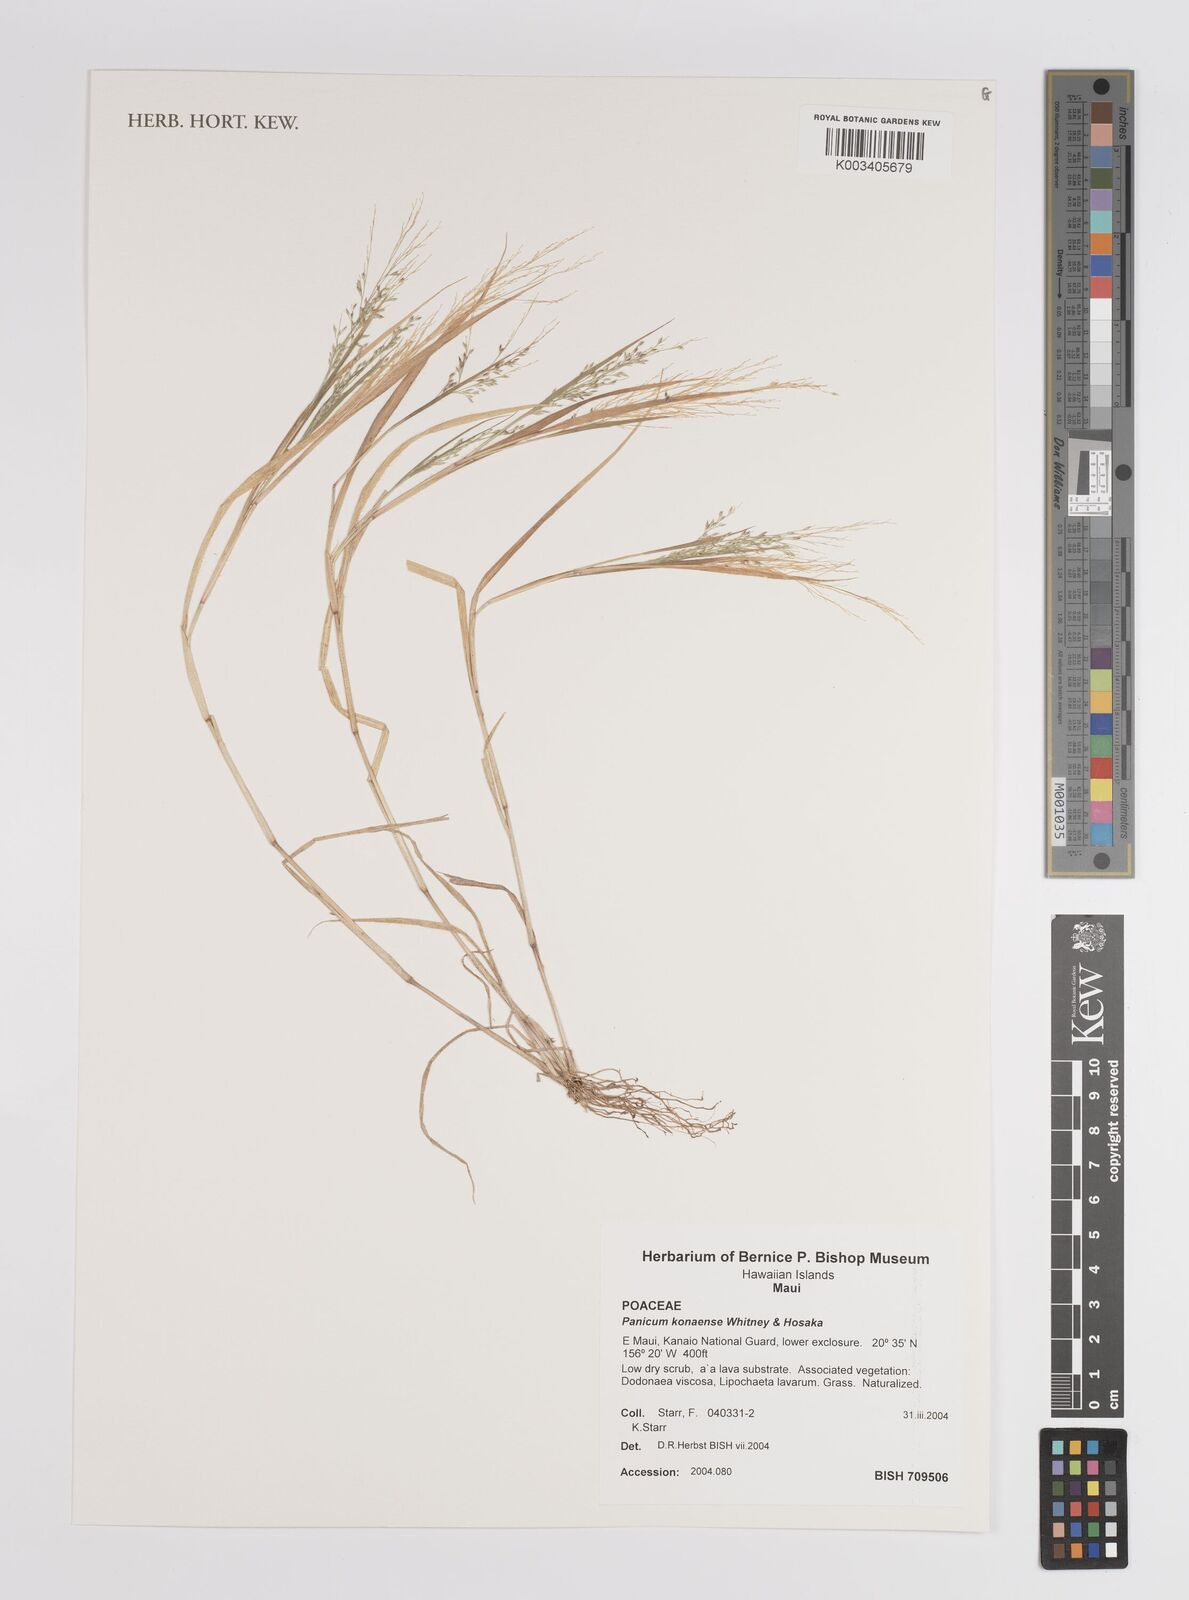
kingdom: Plantae
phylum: Tracheophyta
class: Liliopsida
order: Poales
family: Poaceae
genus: Panicum
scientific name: Panicum konaense
